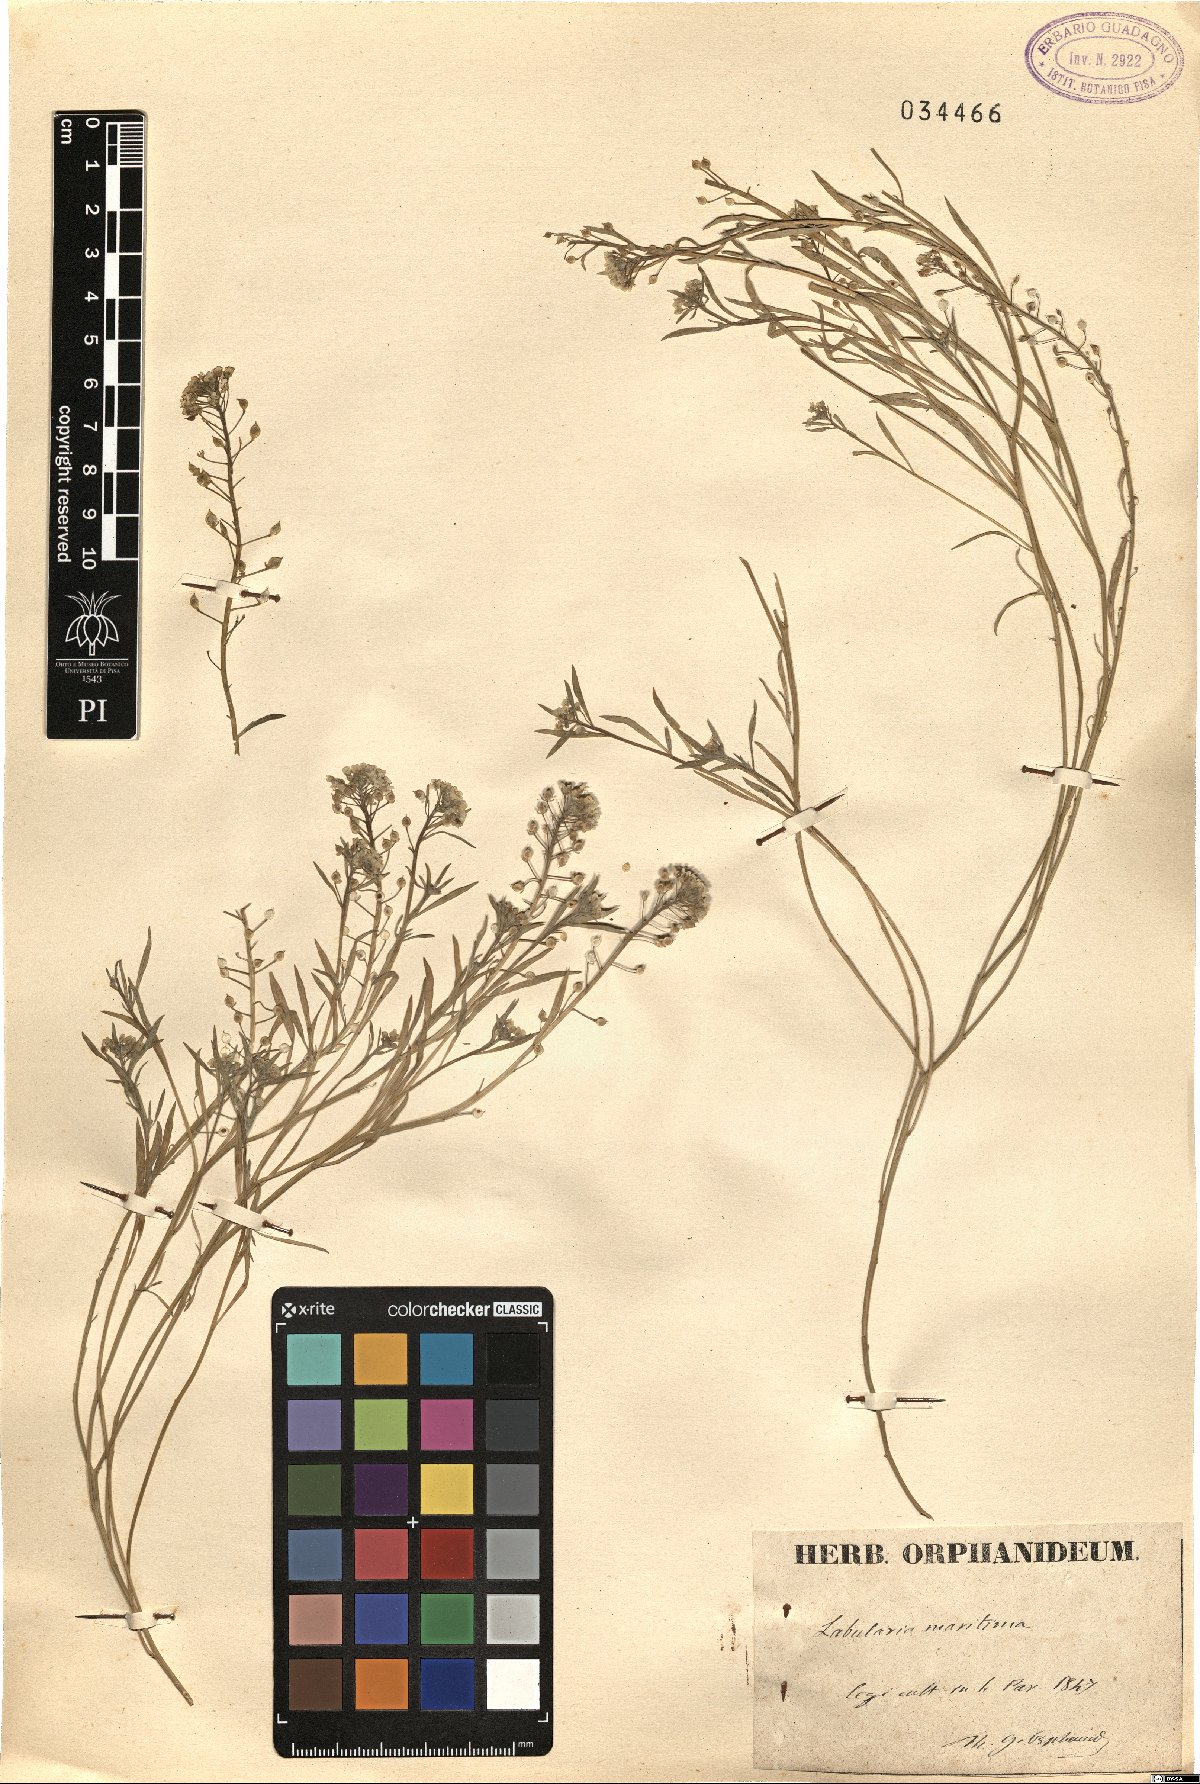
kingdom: Plantae
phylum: Tracheophyta
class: Magnoliopsida
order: Brassicales
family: Brassicaceae
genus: Lobularia
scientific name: Lobularia maritima
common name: Sweet alison
